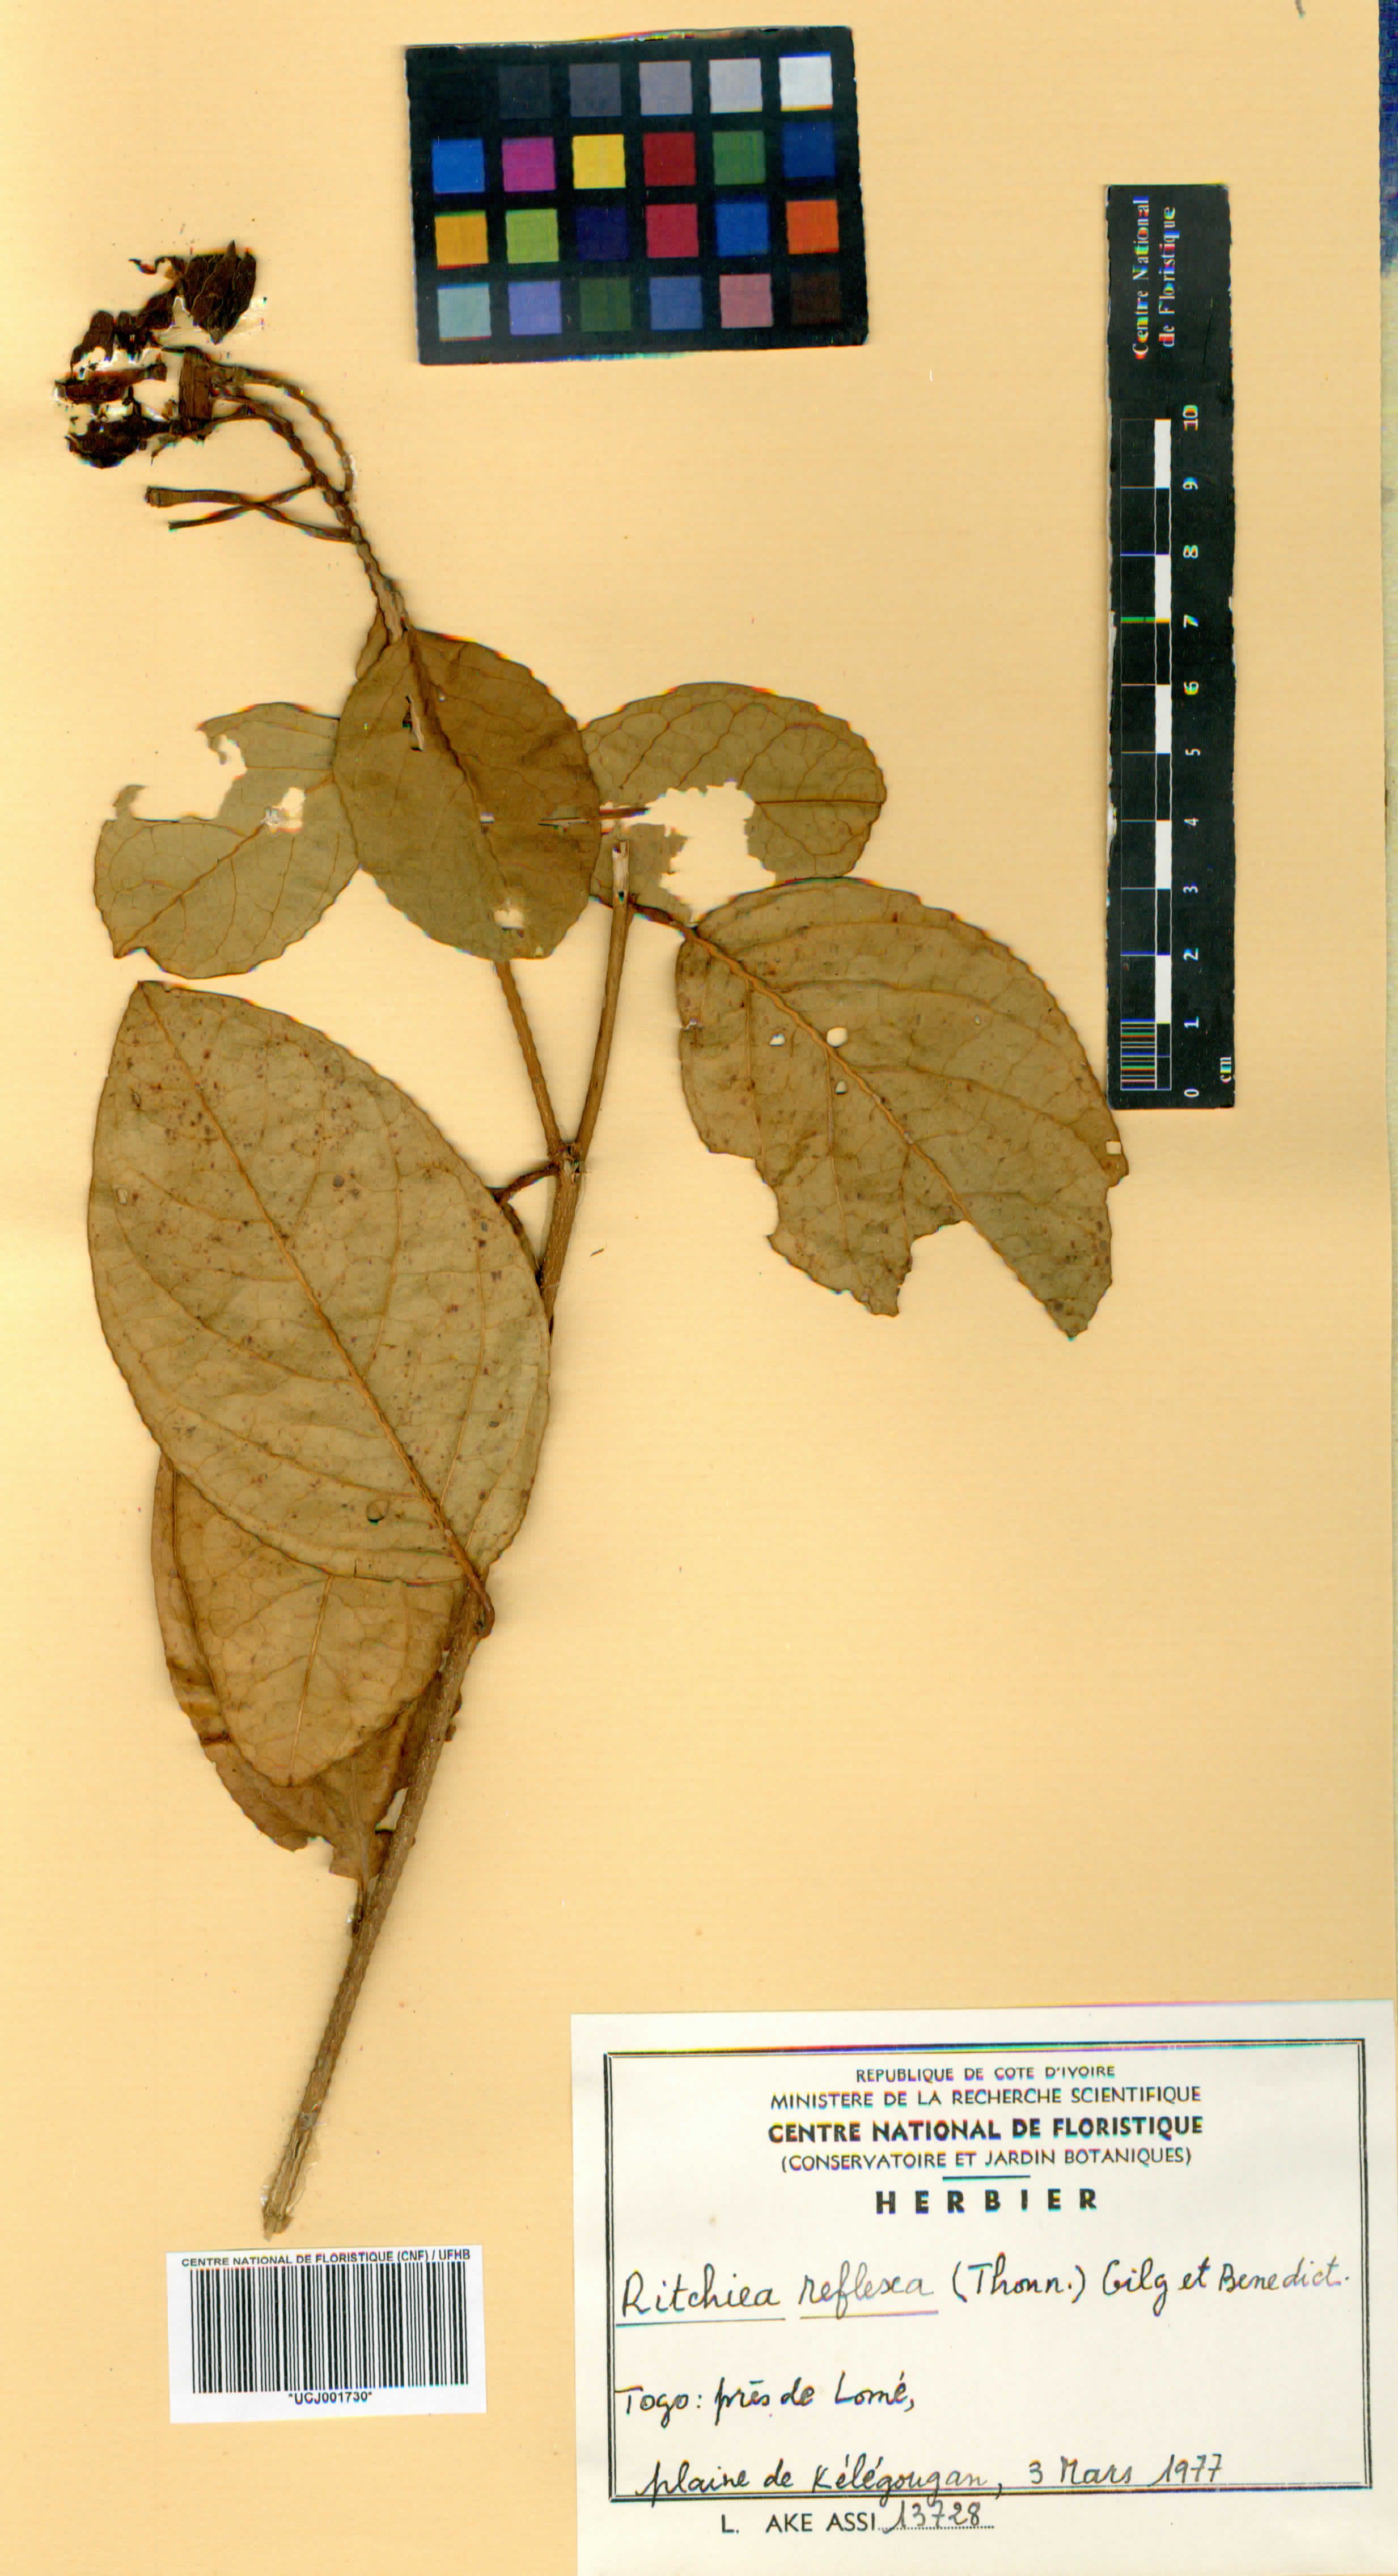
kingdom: Plantae
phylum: Tracheophyta
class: Magnoliopsida
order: Brassicales
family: Capparaceae
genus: Ritchiea
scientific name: Ritchiea reflexa
